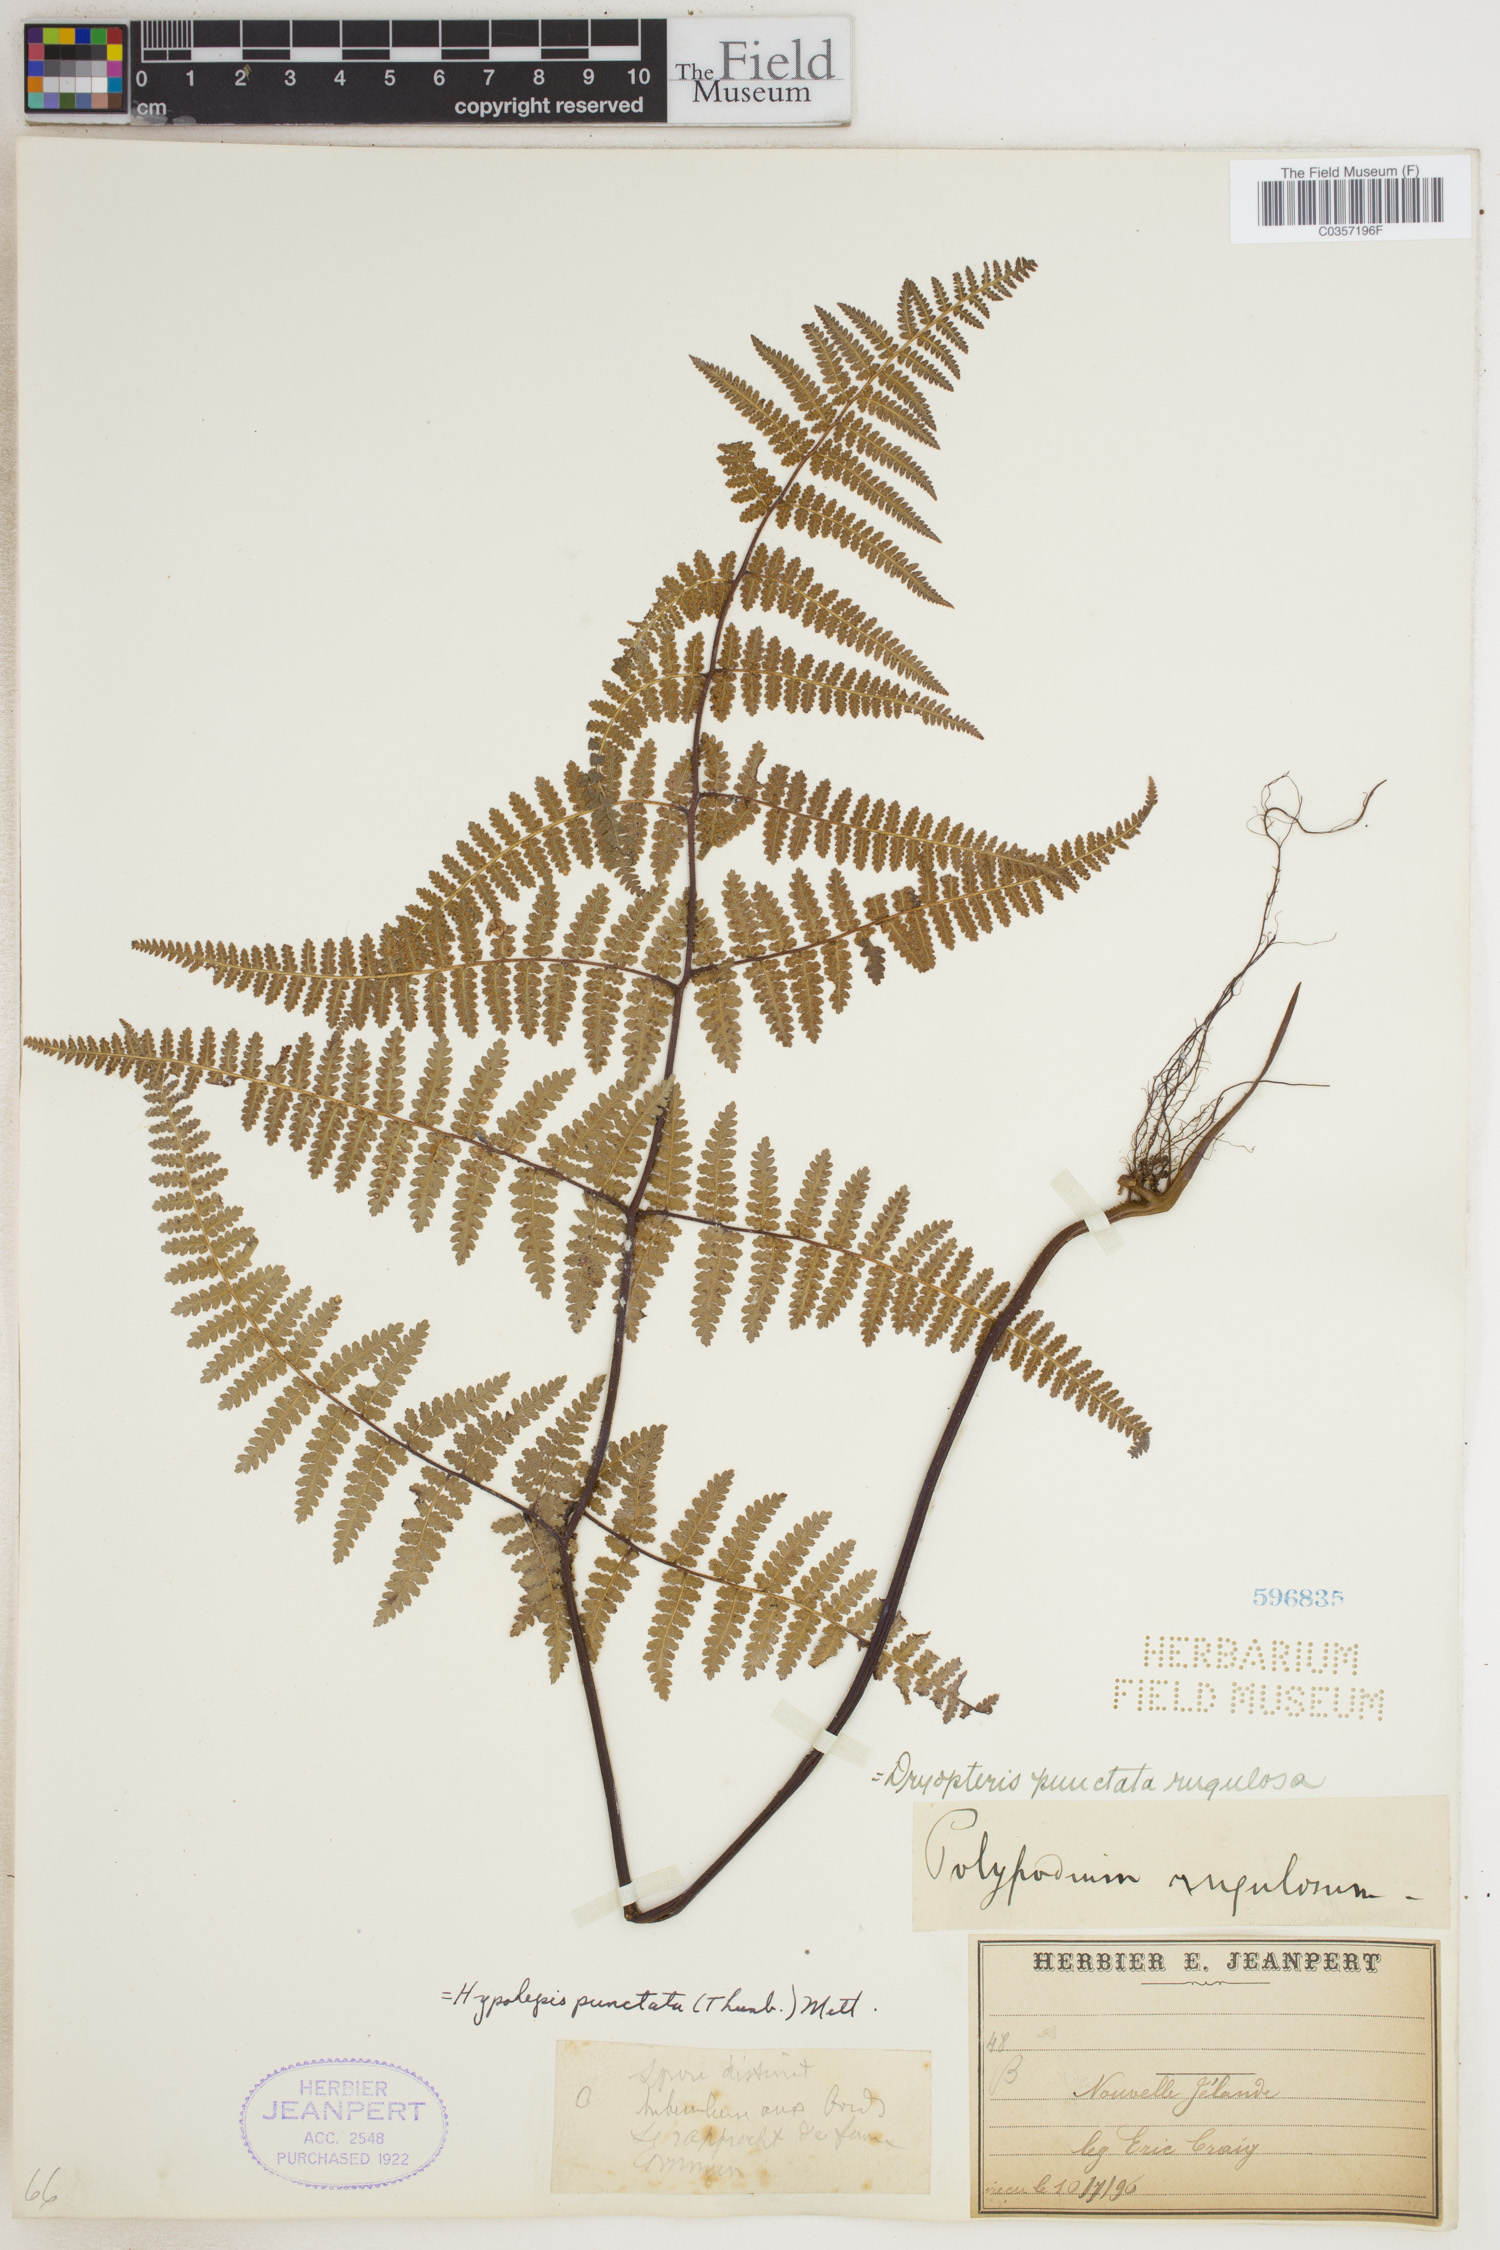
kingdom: Plantae
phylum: Tracheophyta
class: Polypodiopsida
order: Polypodiales
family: Dennstaedtiaceae
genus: Hypolepis
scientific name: Hypolepis punctata
